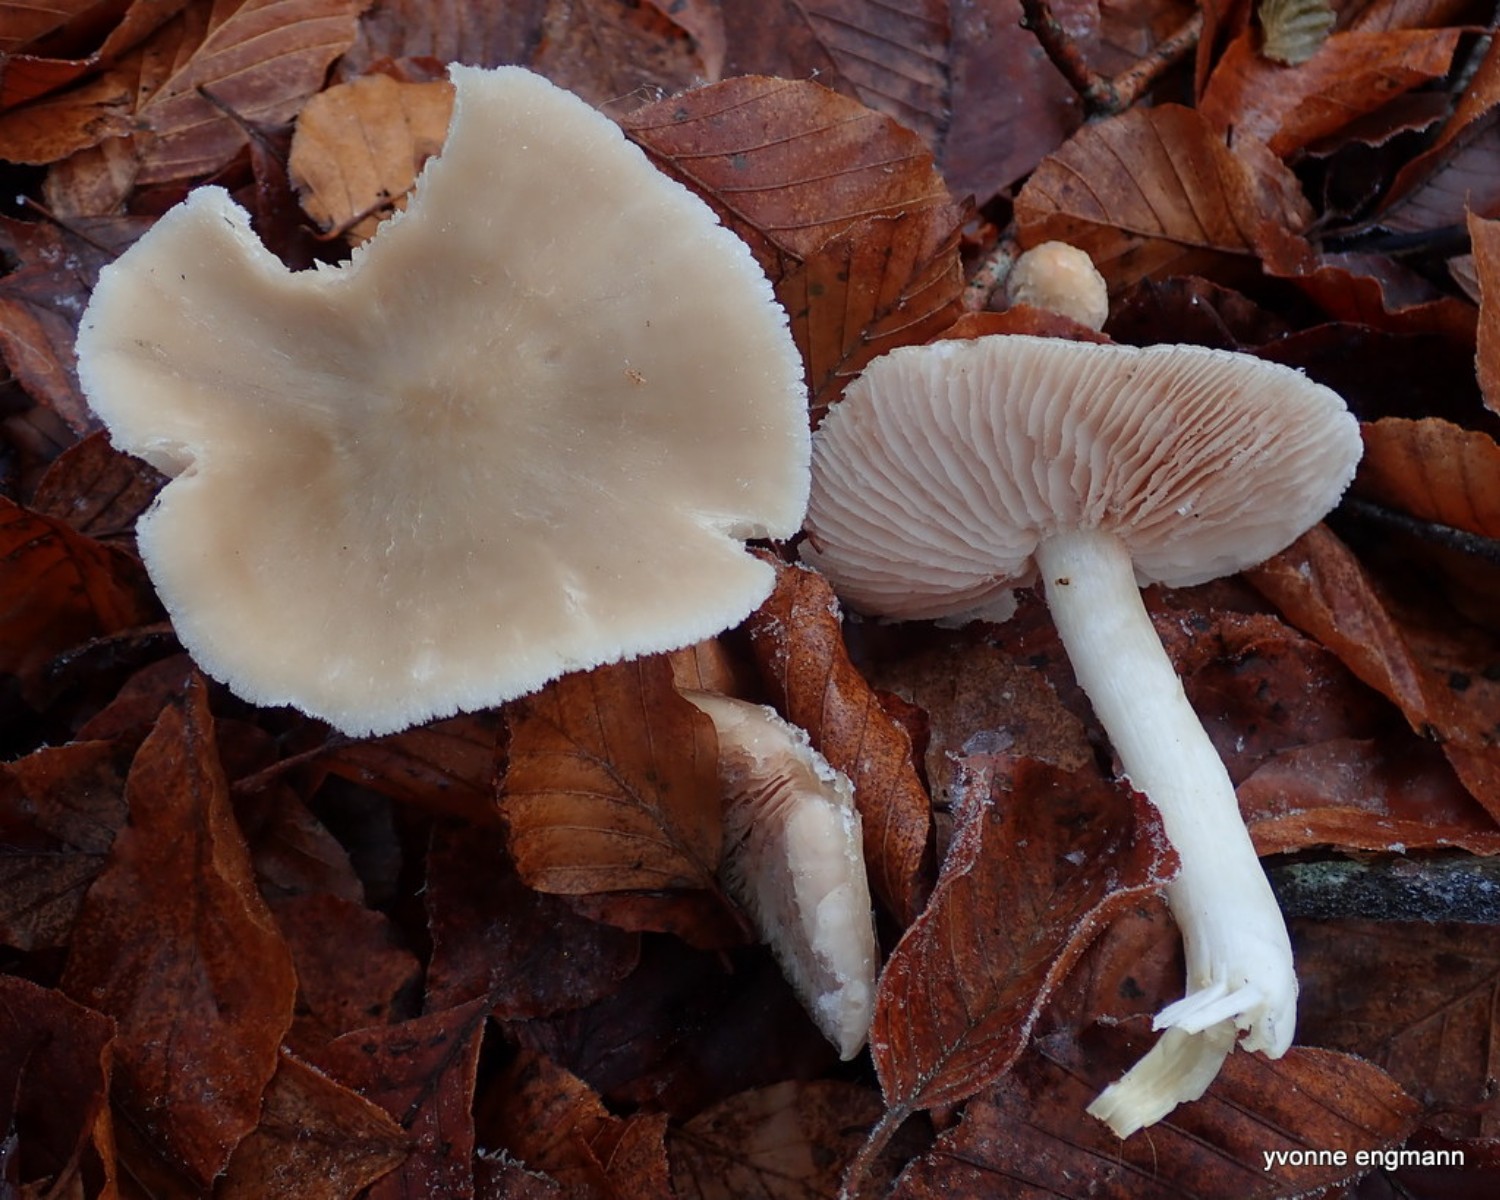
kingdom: Fungi
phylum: Basidiomycota
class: Agaricomycetes
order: Agaricales
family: Entolomataceae
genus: Entoloma
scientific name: Entoloma rhodopolium
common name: skov-rødblad
